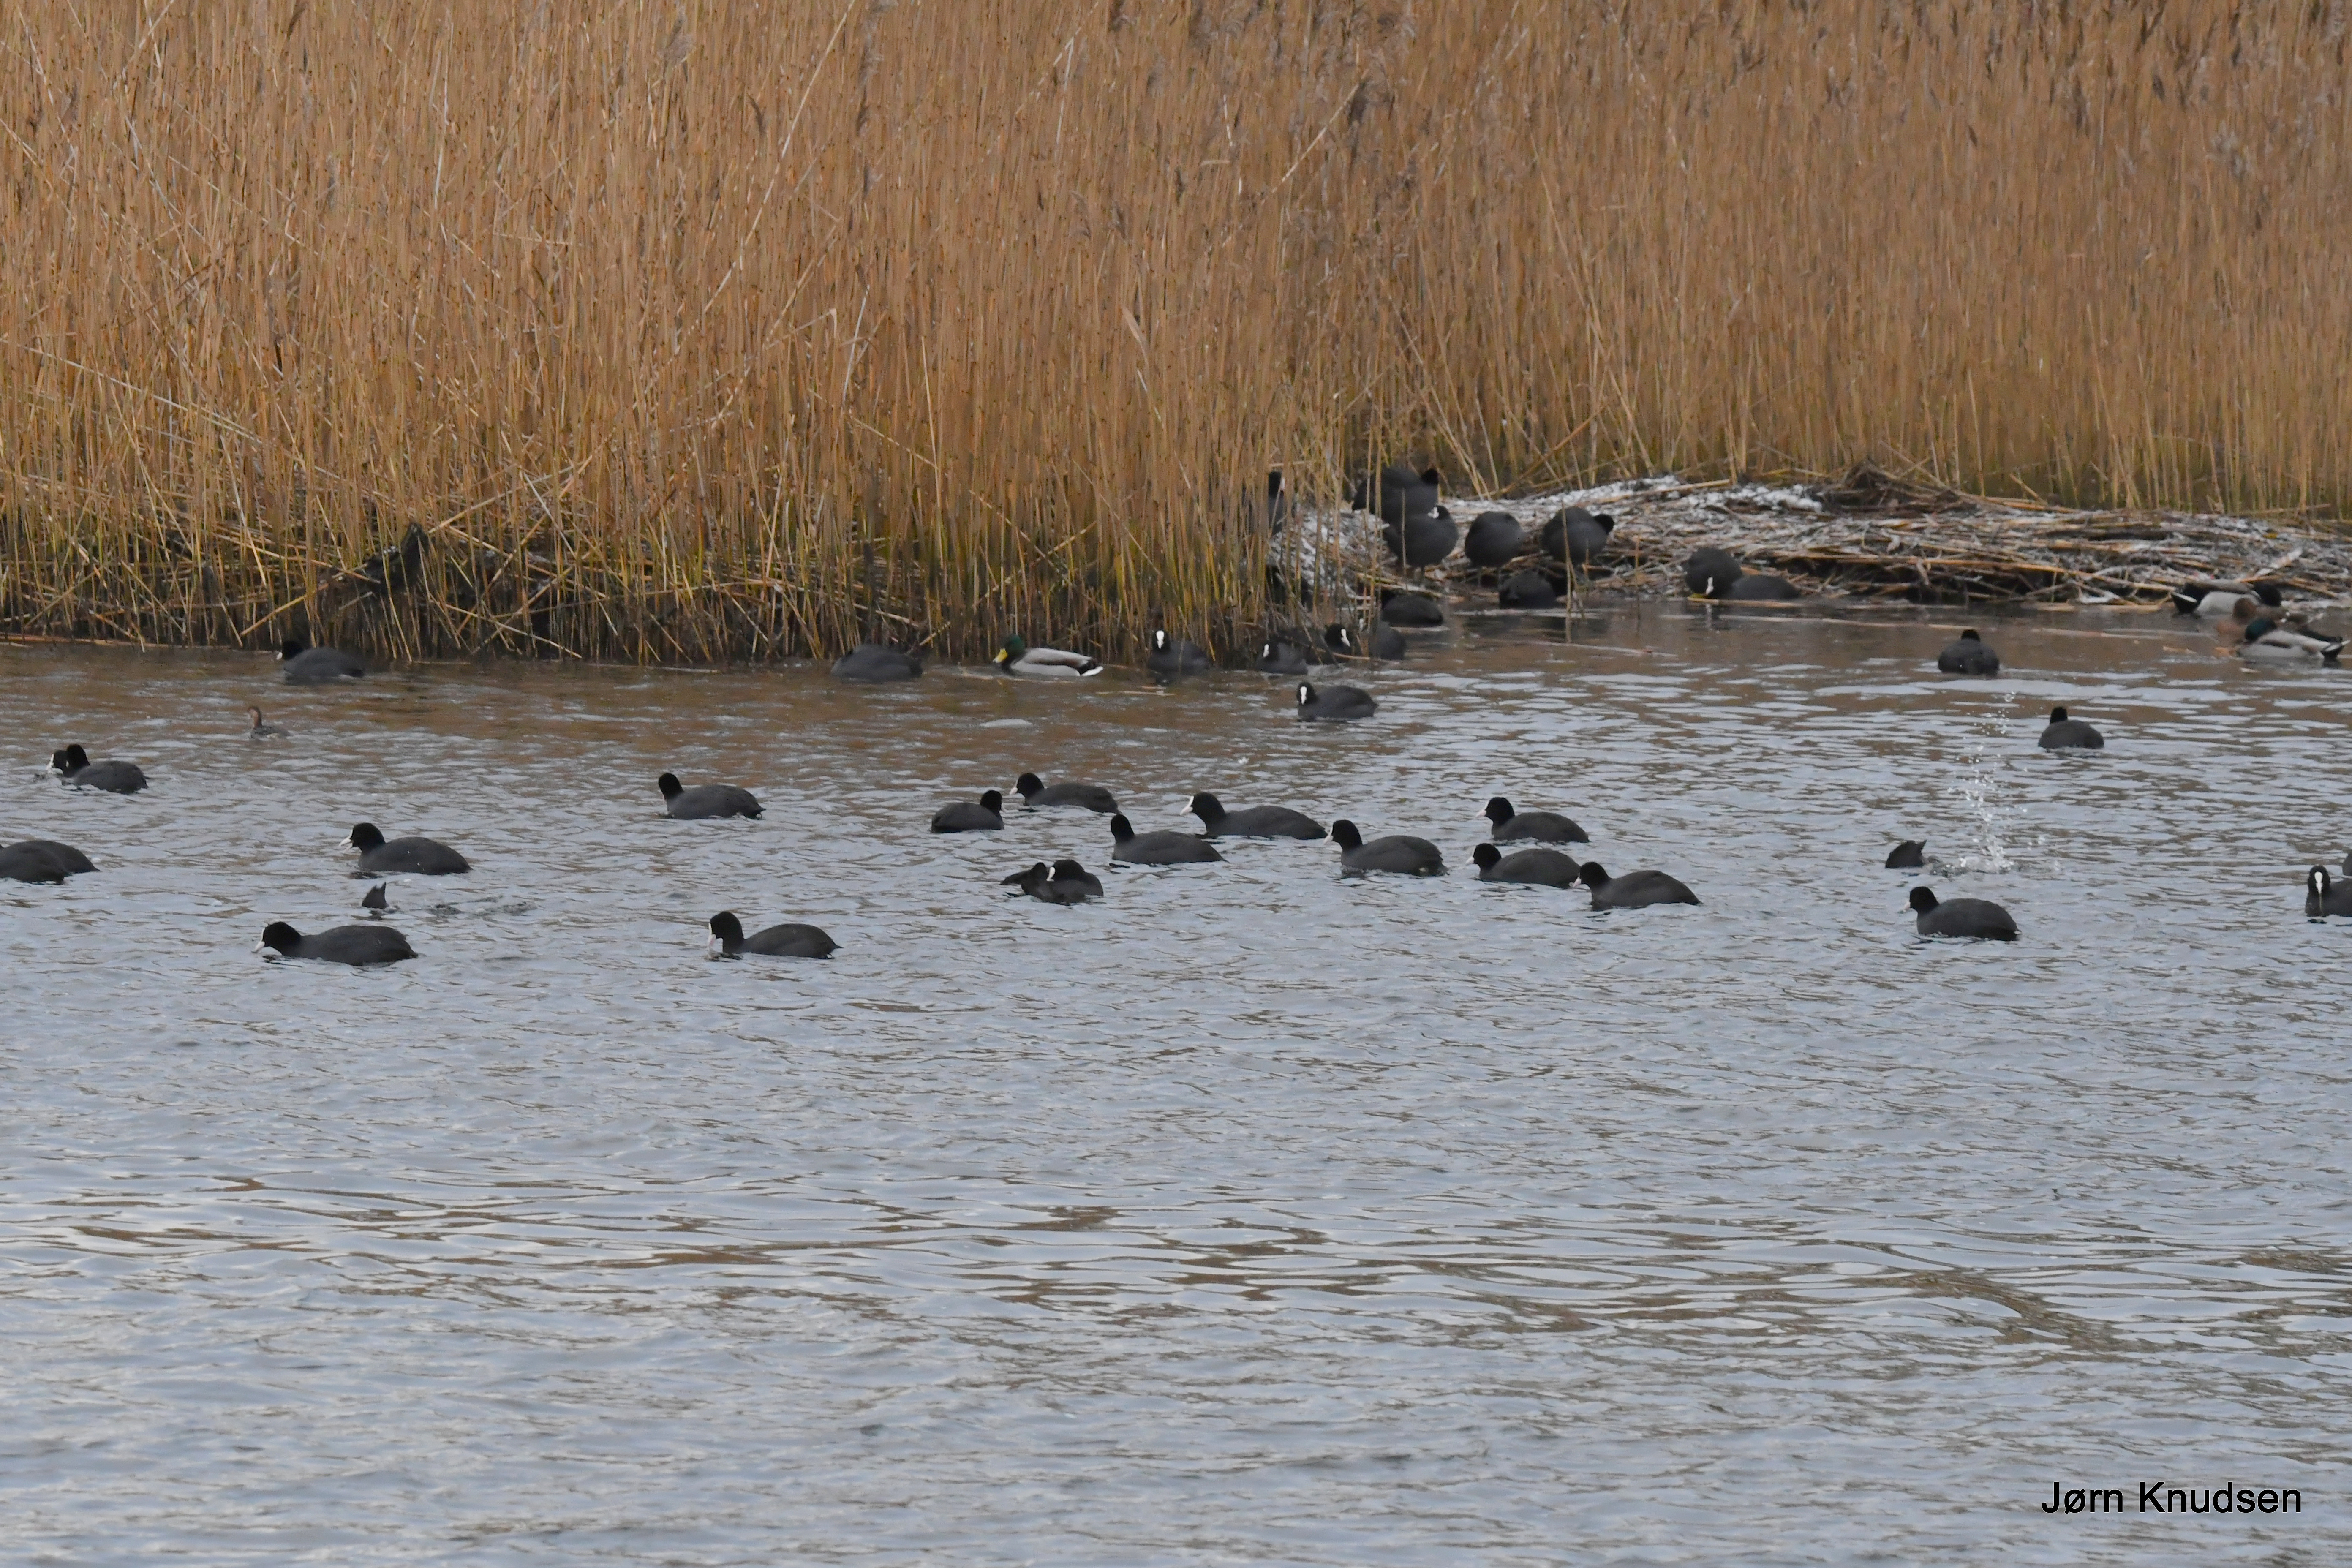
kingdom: Animalia
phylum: Chordata
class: Aves
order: Gruiformes
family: Rallidae
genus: Fulica
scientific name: Fulica atra
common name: Blishøne
